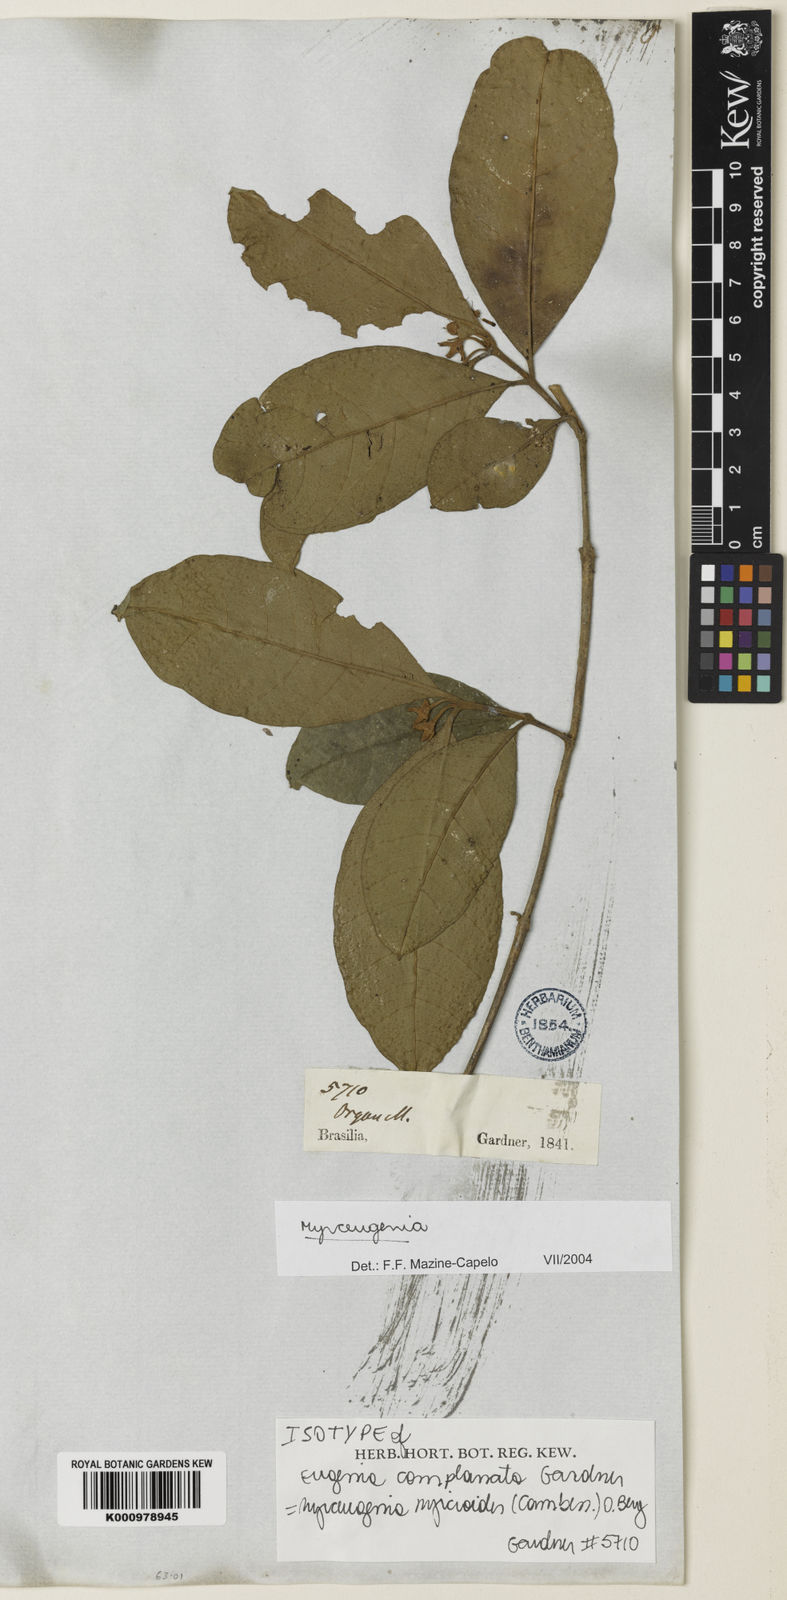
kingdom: Plantae
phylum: Tracheophyta
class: Magnoliopsida
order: Myrtales
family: Myrtaceae
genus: Myrceugenia
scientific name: Myrceugenia myrcioides
